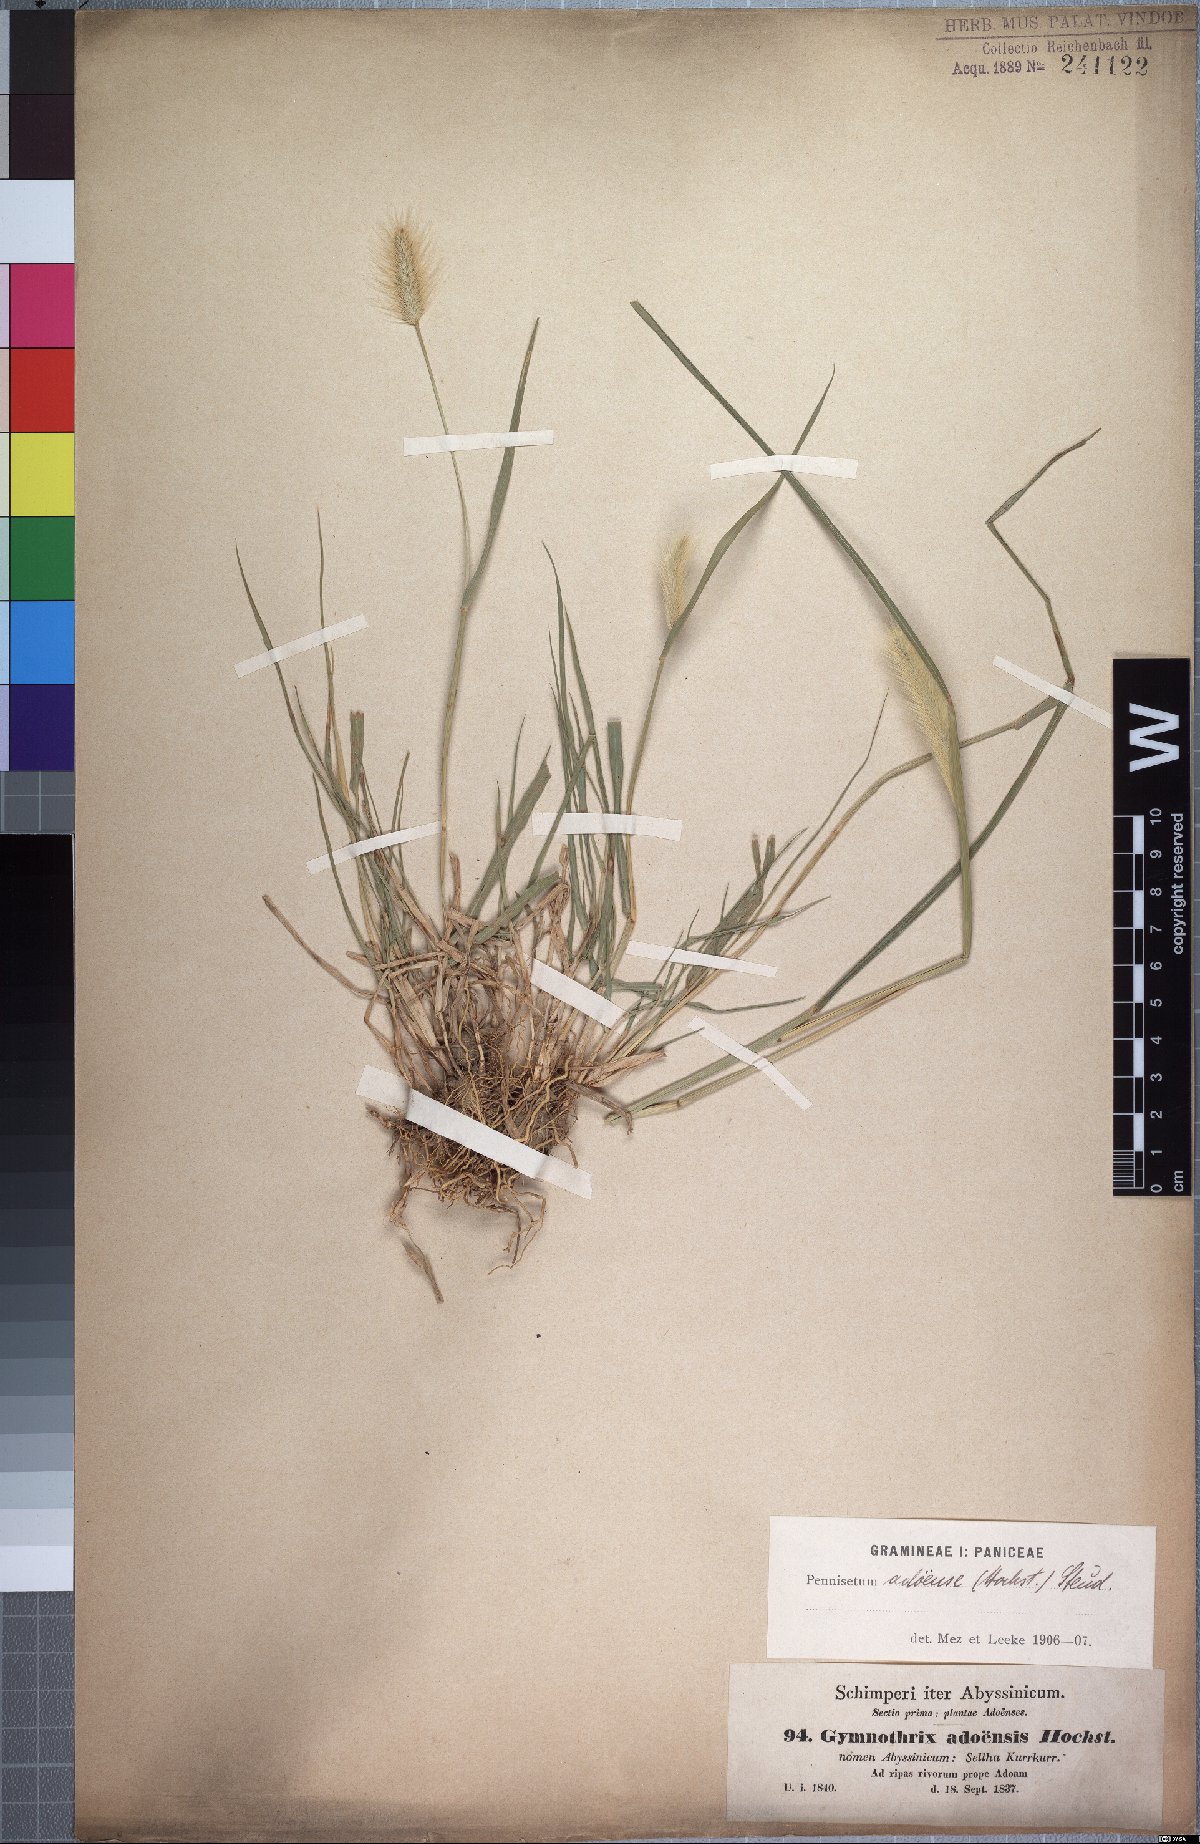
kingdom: Plantae
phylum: Tracheophyta
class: Liliopsida
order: Poales
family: Poaceae
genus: Cenchrus
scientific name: Cenchrus geniculatus
